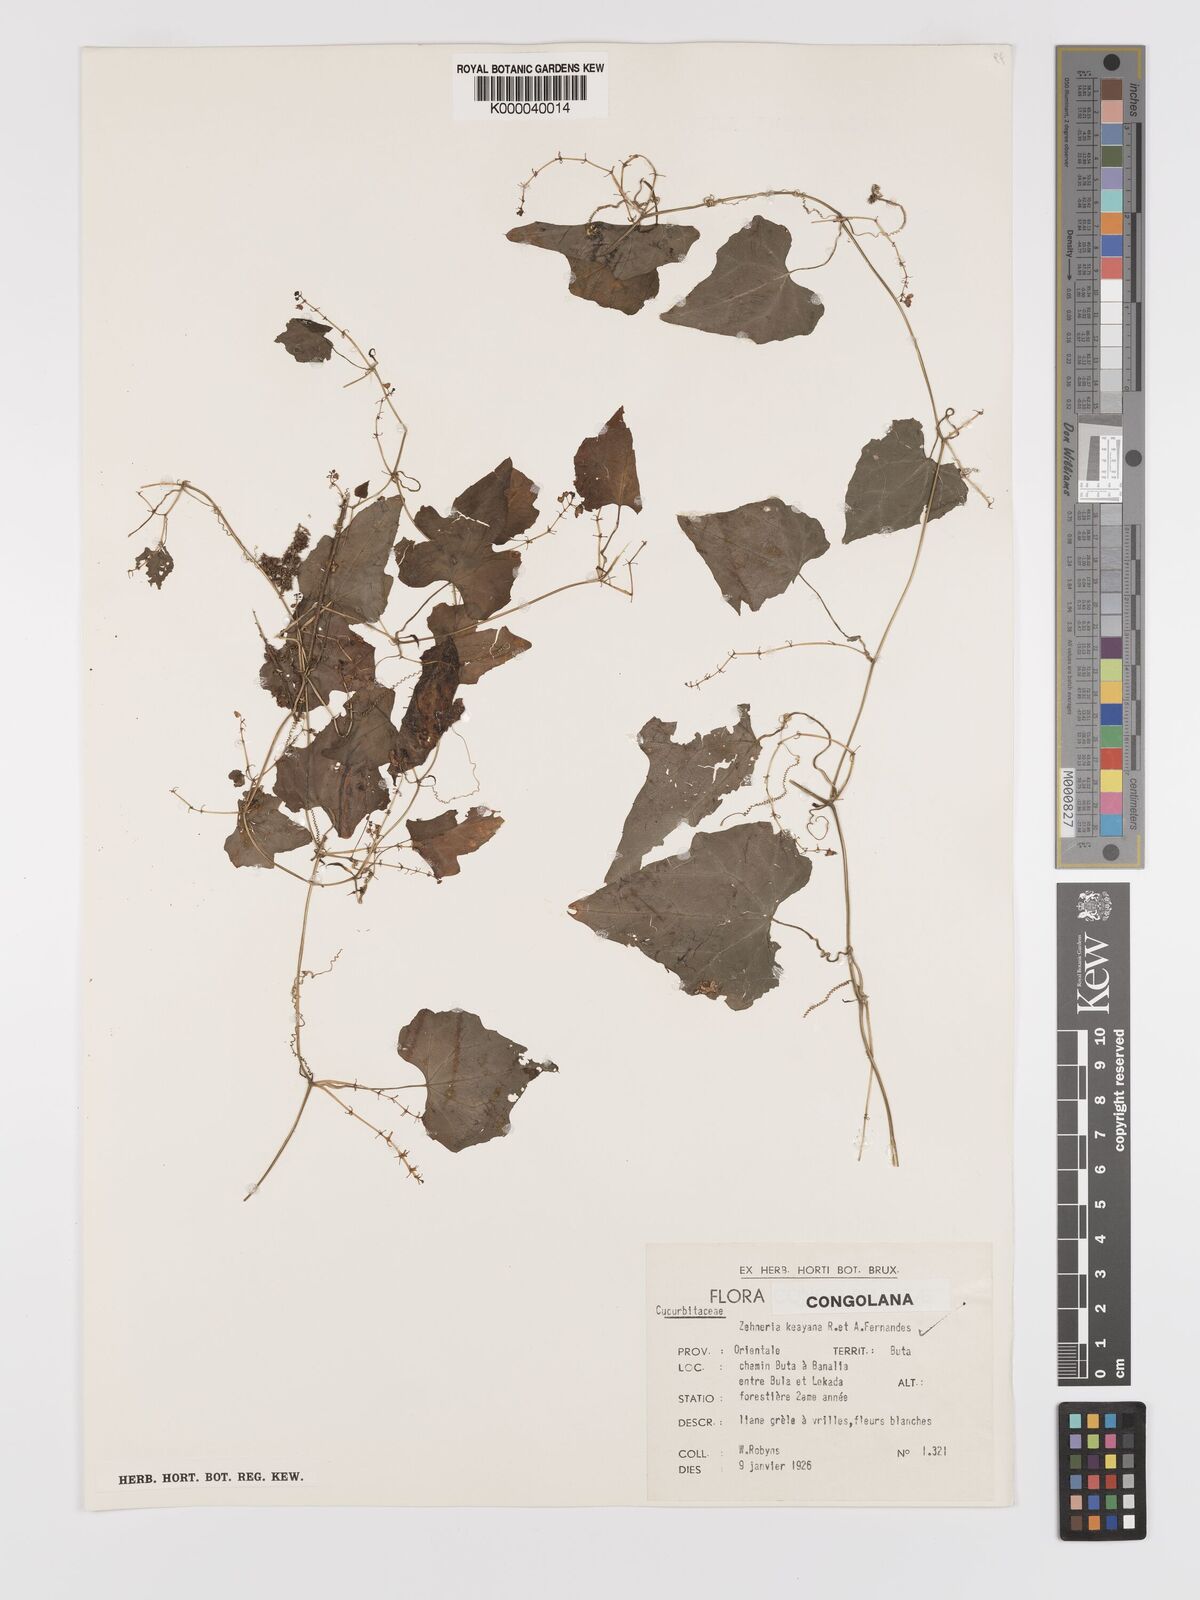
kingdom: Plantae
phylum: Tracheophyta
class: Magnoliopsida
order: Cucurbitales
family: Cucurbitaceae
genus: Zehneria
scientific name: Zehneria keayana
